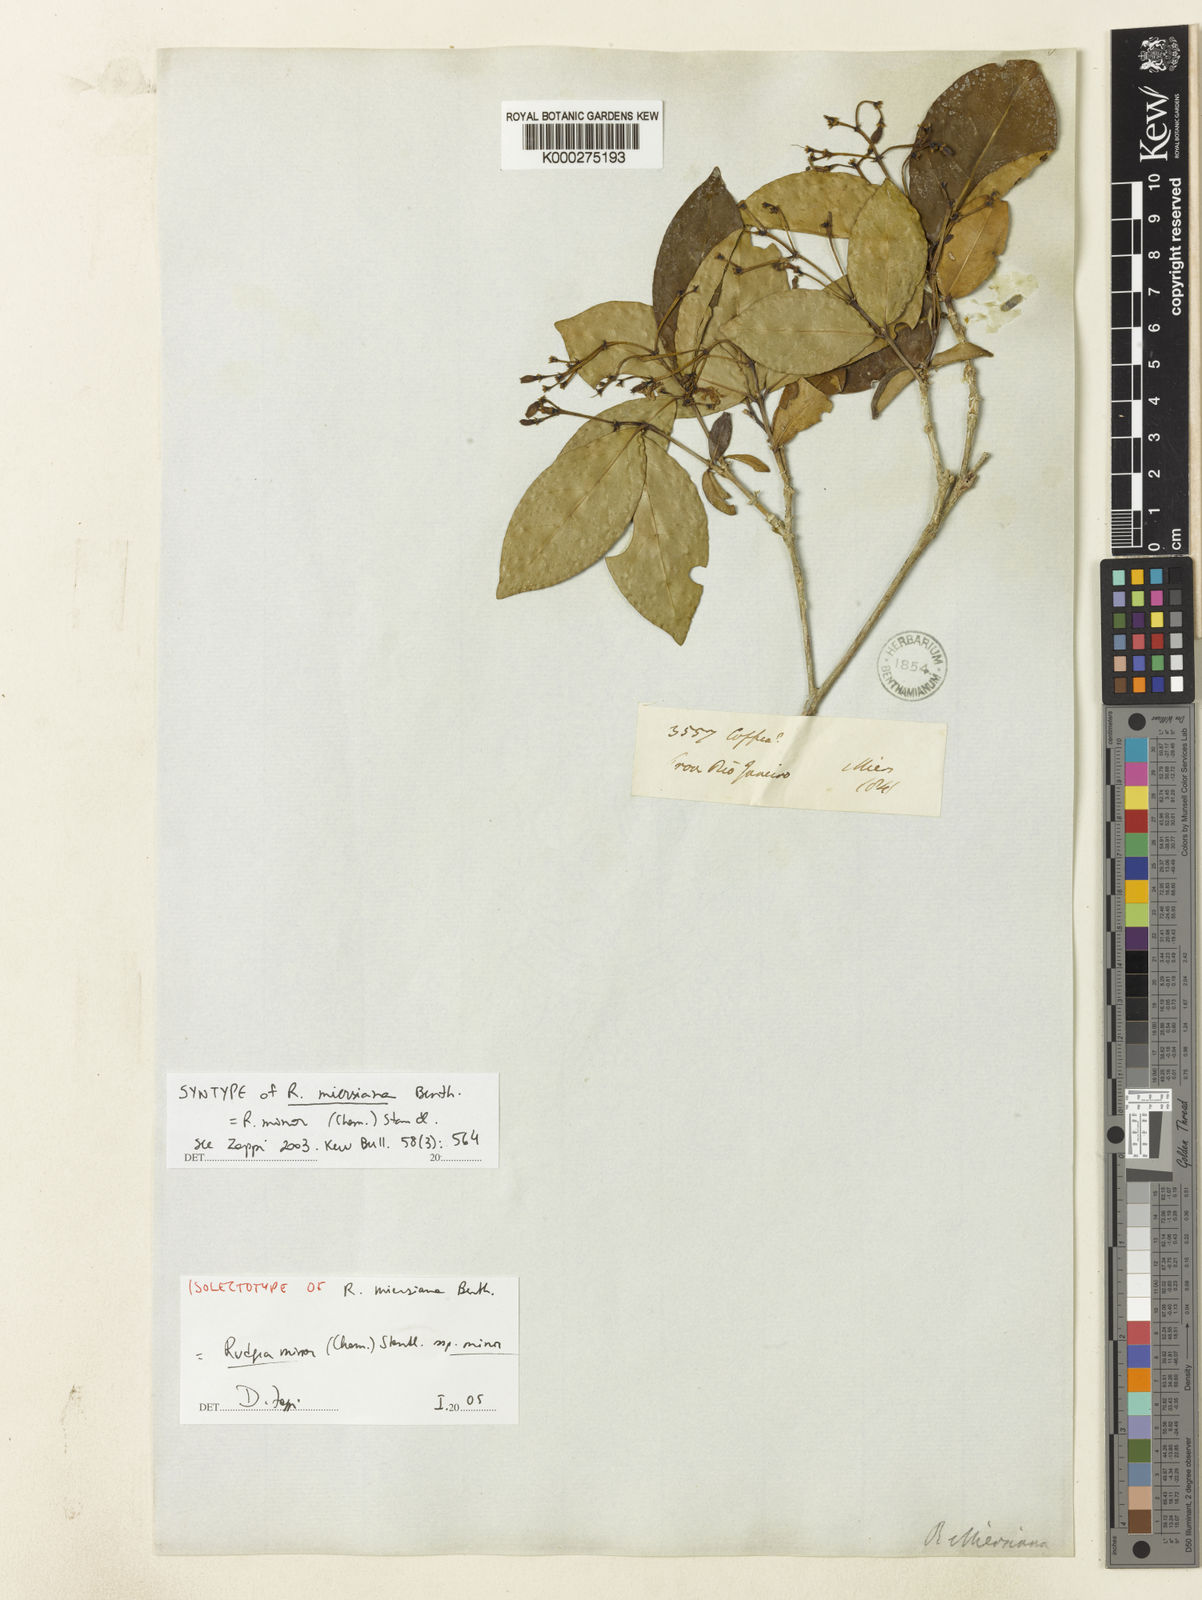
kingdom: Plantae
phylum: Tracheophyta
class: Magnoliopsida
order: Gentianales
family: Rubiaceae
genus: Rudgea
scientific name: Rudgea minor
